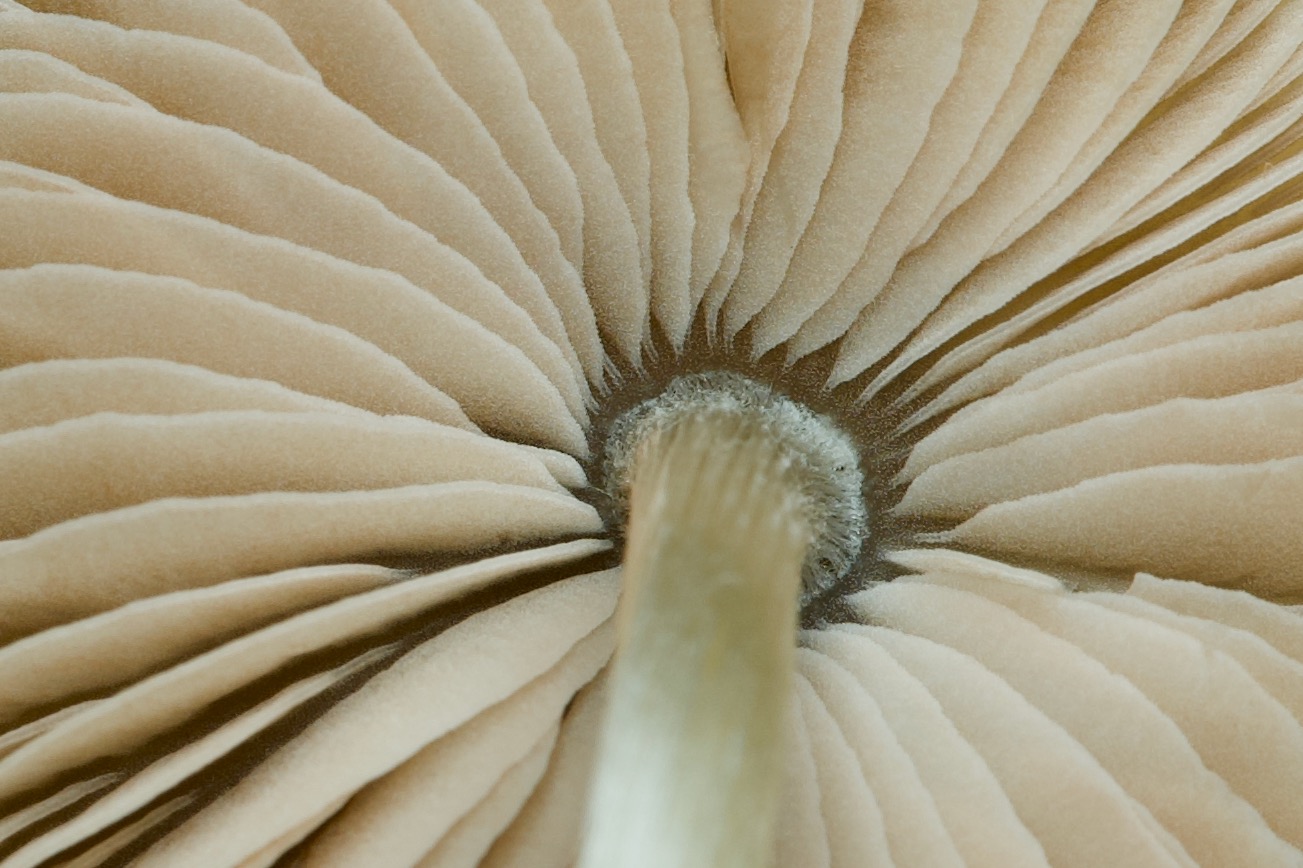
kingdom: Fungi
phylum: Basidiomycota
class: Agaricomycetes
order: Agaricales
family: Entolomataceae
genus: Entoloma
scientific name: Entoloma conferendum
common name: stjernesporet rødblad
